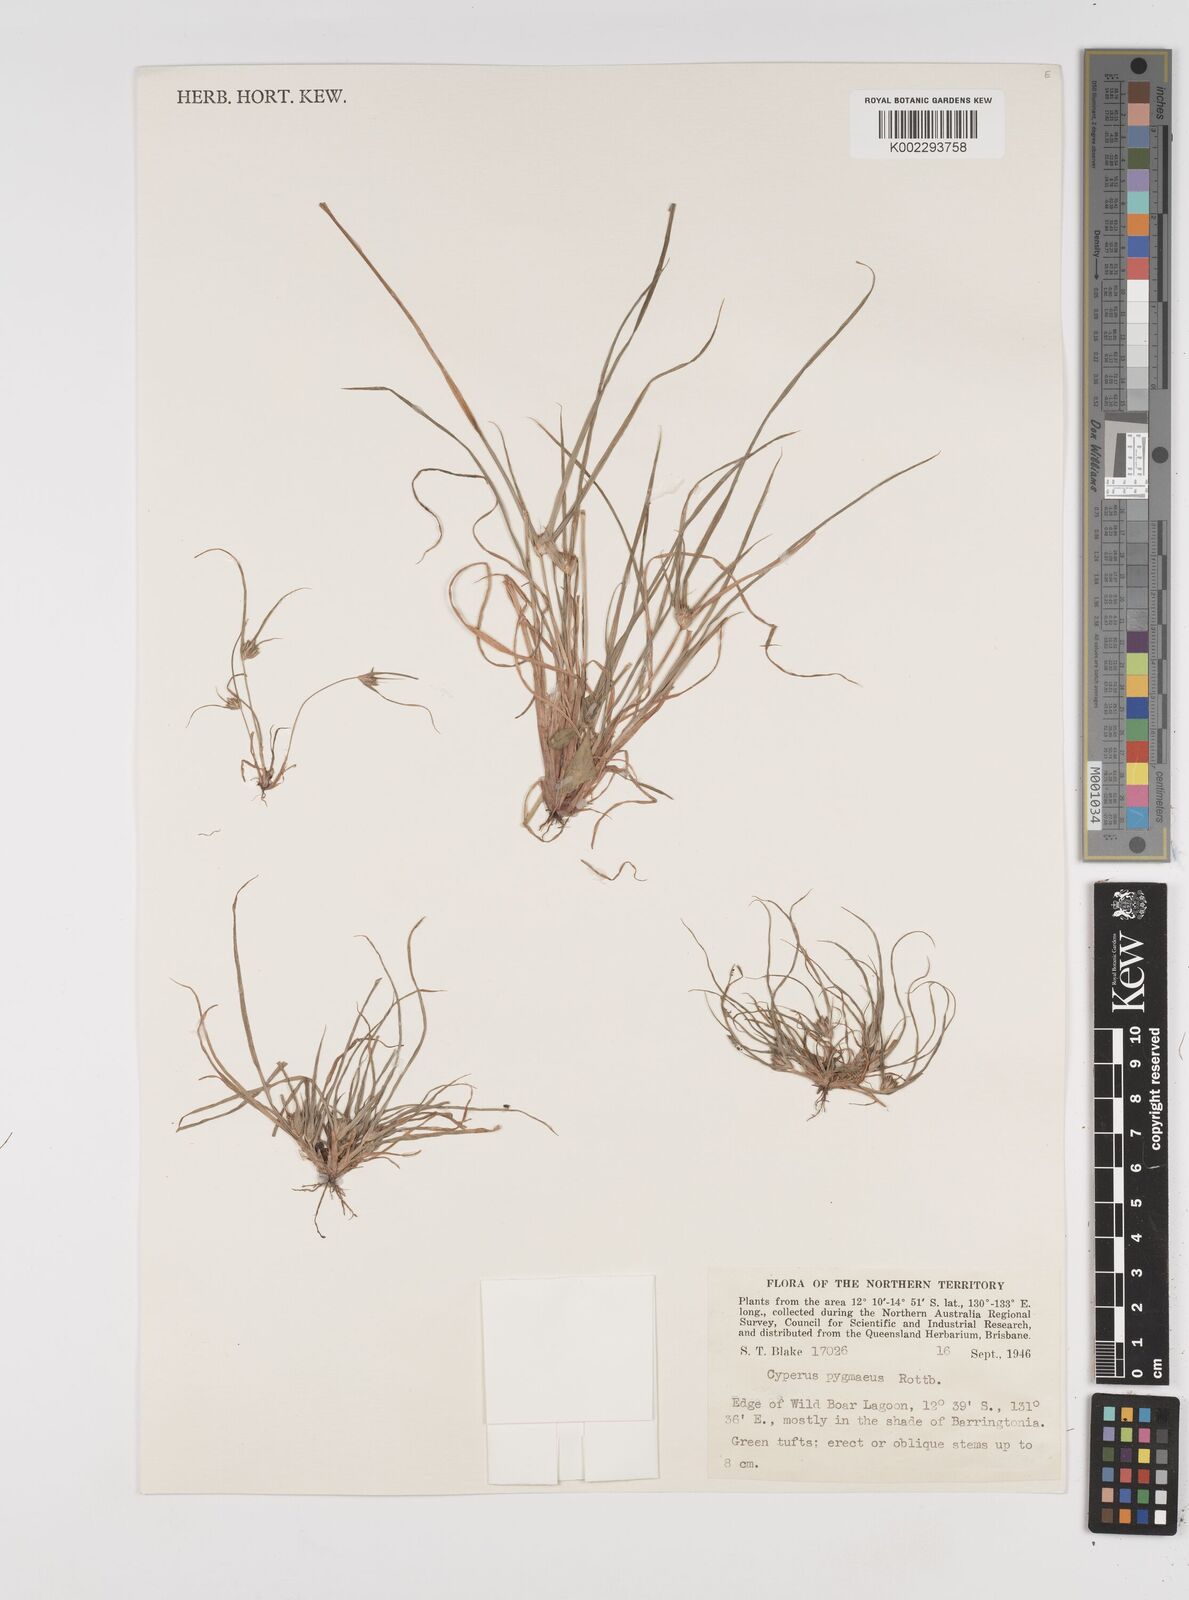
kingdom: Plantae
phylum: Tracheophyta
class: Liliopsida
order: Poales
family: Cyperaceae
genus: Cyperus
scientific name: Cyperus michelianus
